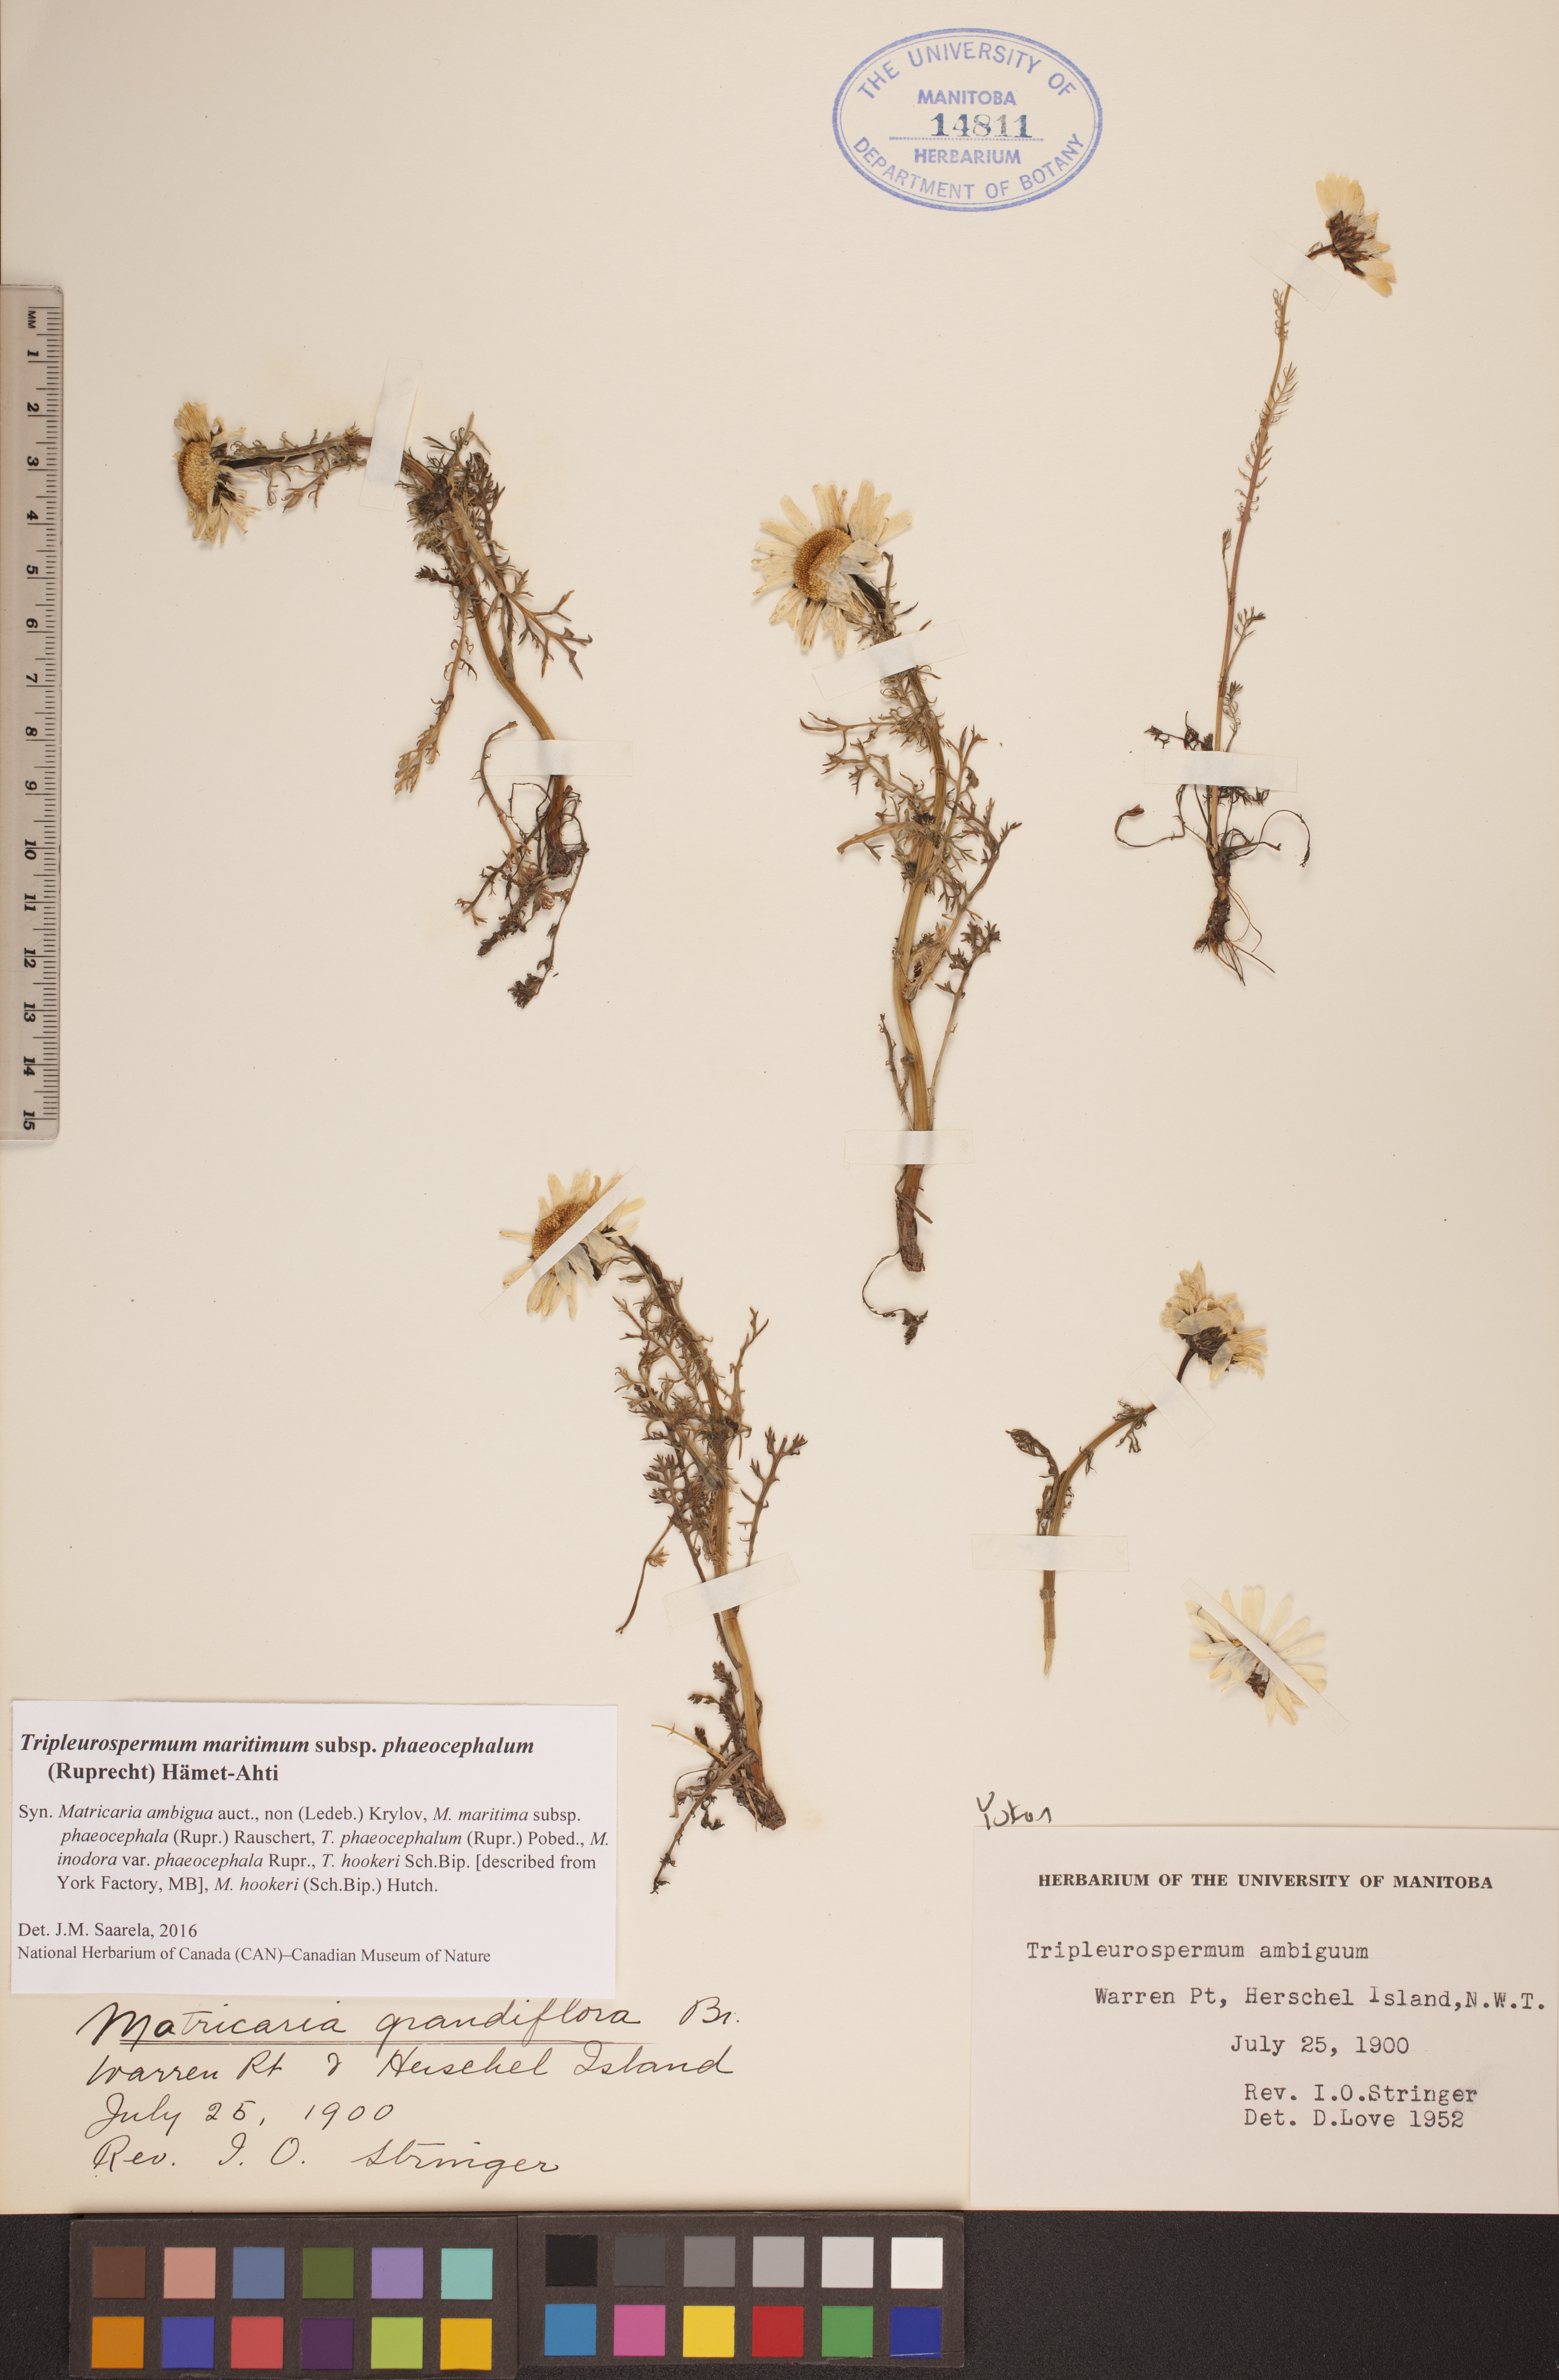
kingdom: Plantae
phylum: Tracheophyta
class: Magnoliopsida
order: Asterales
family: Asteraceae
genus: Tripleurospermum
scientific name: Tripleurospermum hookeri
